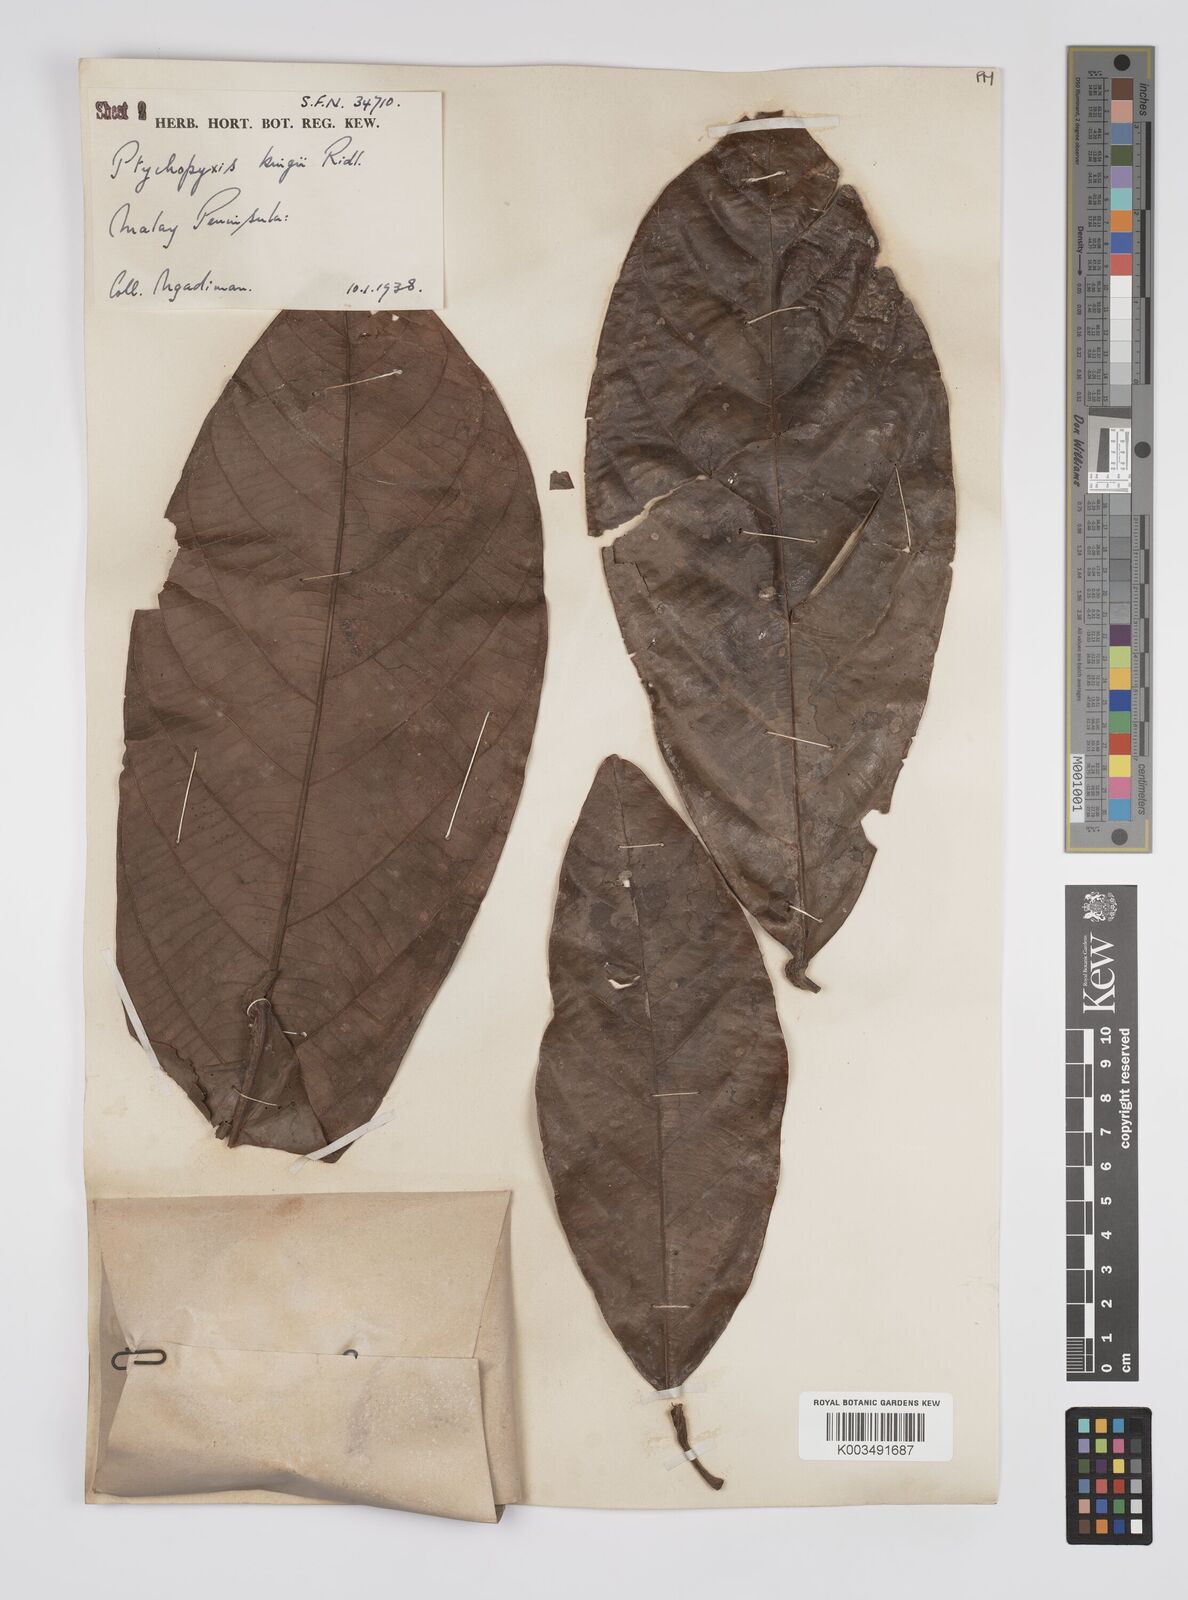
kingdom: Plantae
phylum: Tracheophyta
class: Magnoliopsida
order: Malpighiales
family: Euphorbiaceae
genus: Ptychopyxis
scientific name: Ptychopyxis kingii
